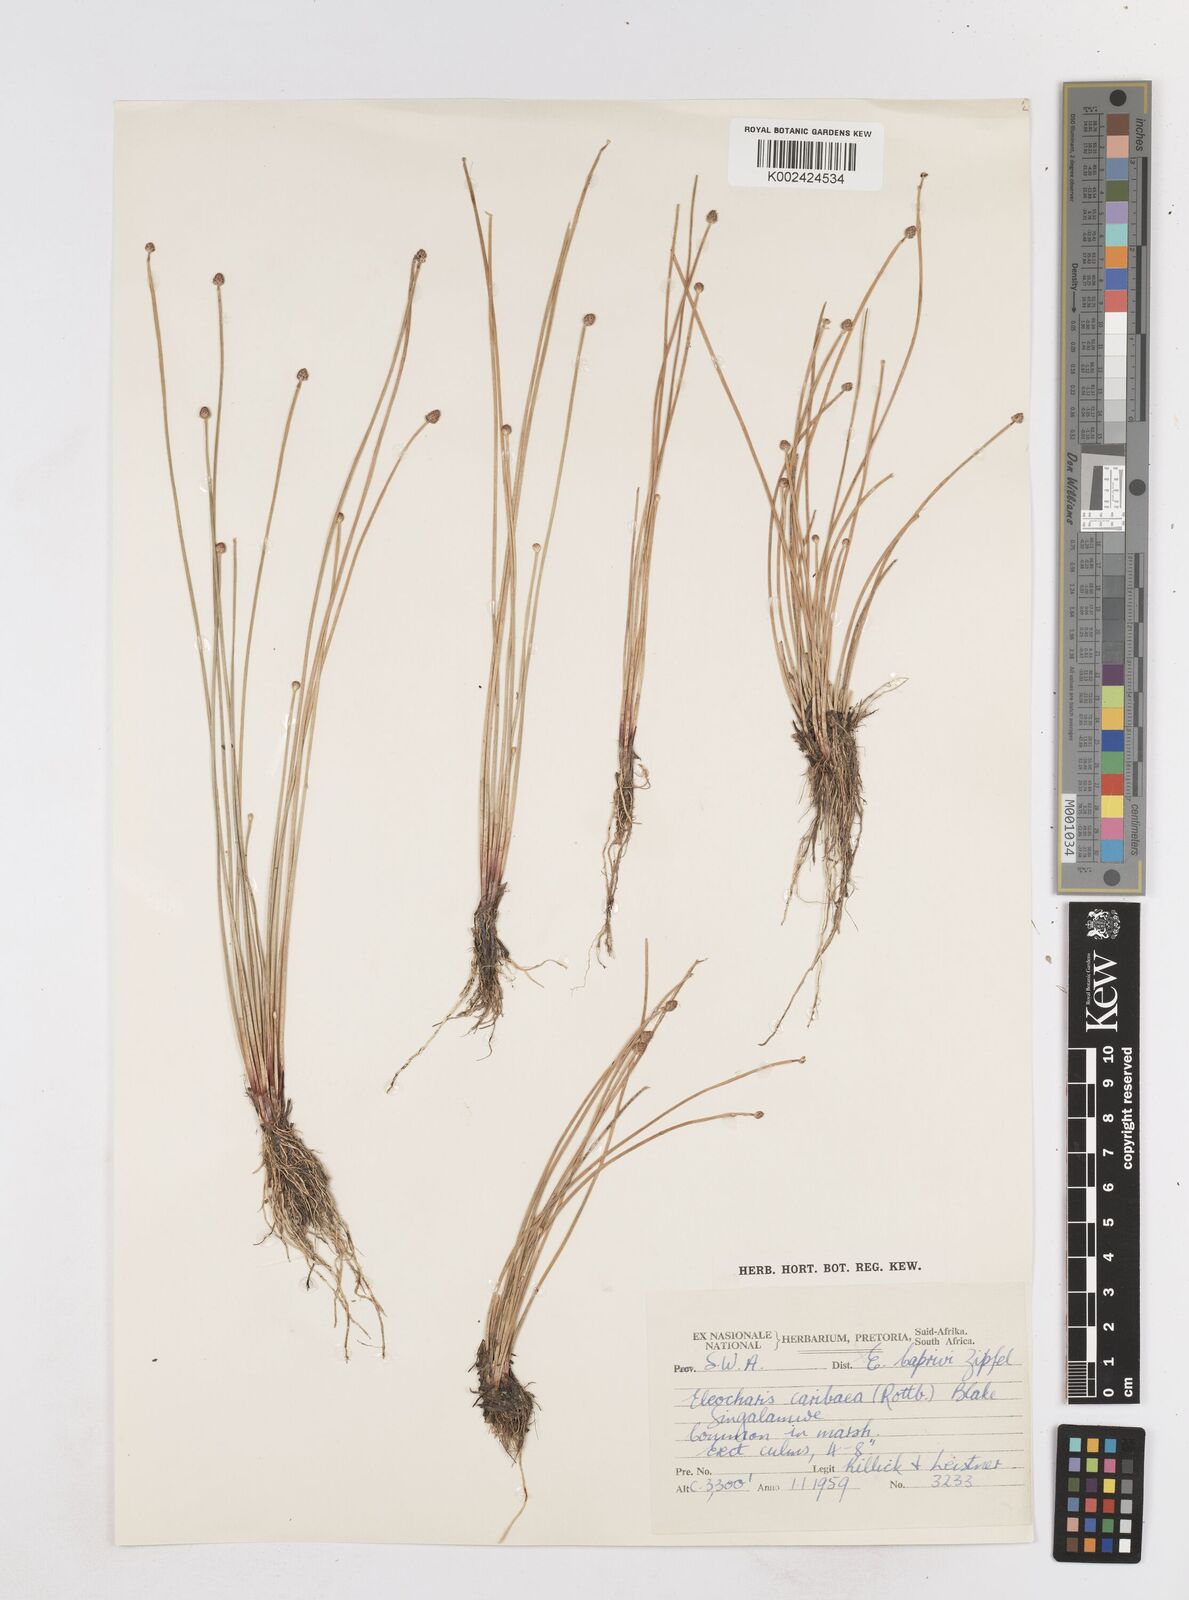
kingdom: Plantae
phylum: Tracheophyta
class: Liliopsida
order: Poales
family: Cyperaceae
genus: Eleocharis
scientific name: Eleocharis geniculata
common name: Canada spikesedge
